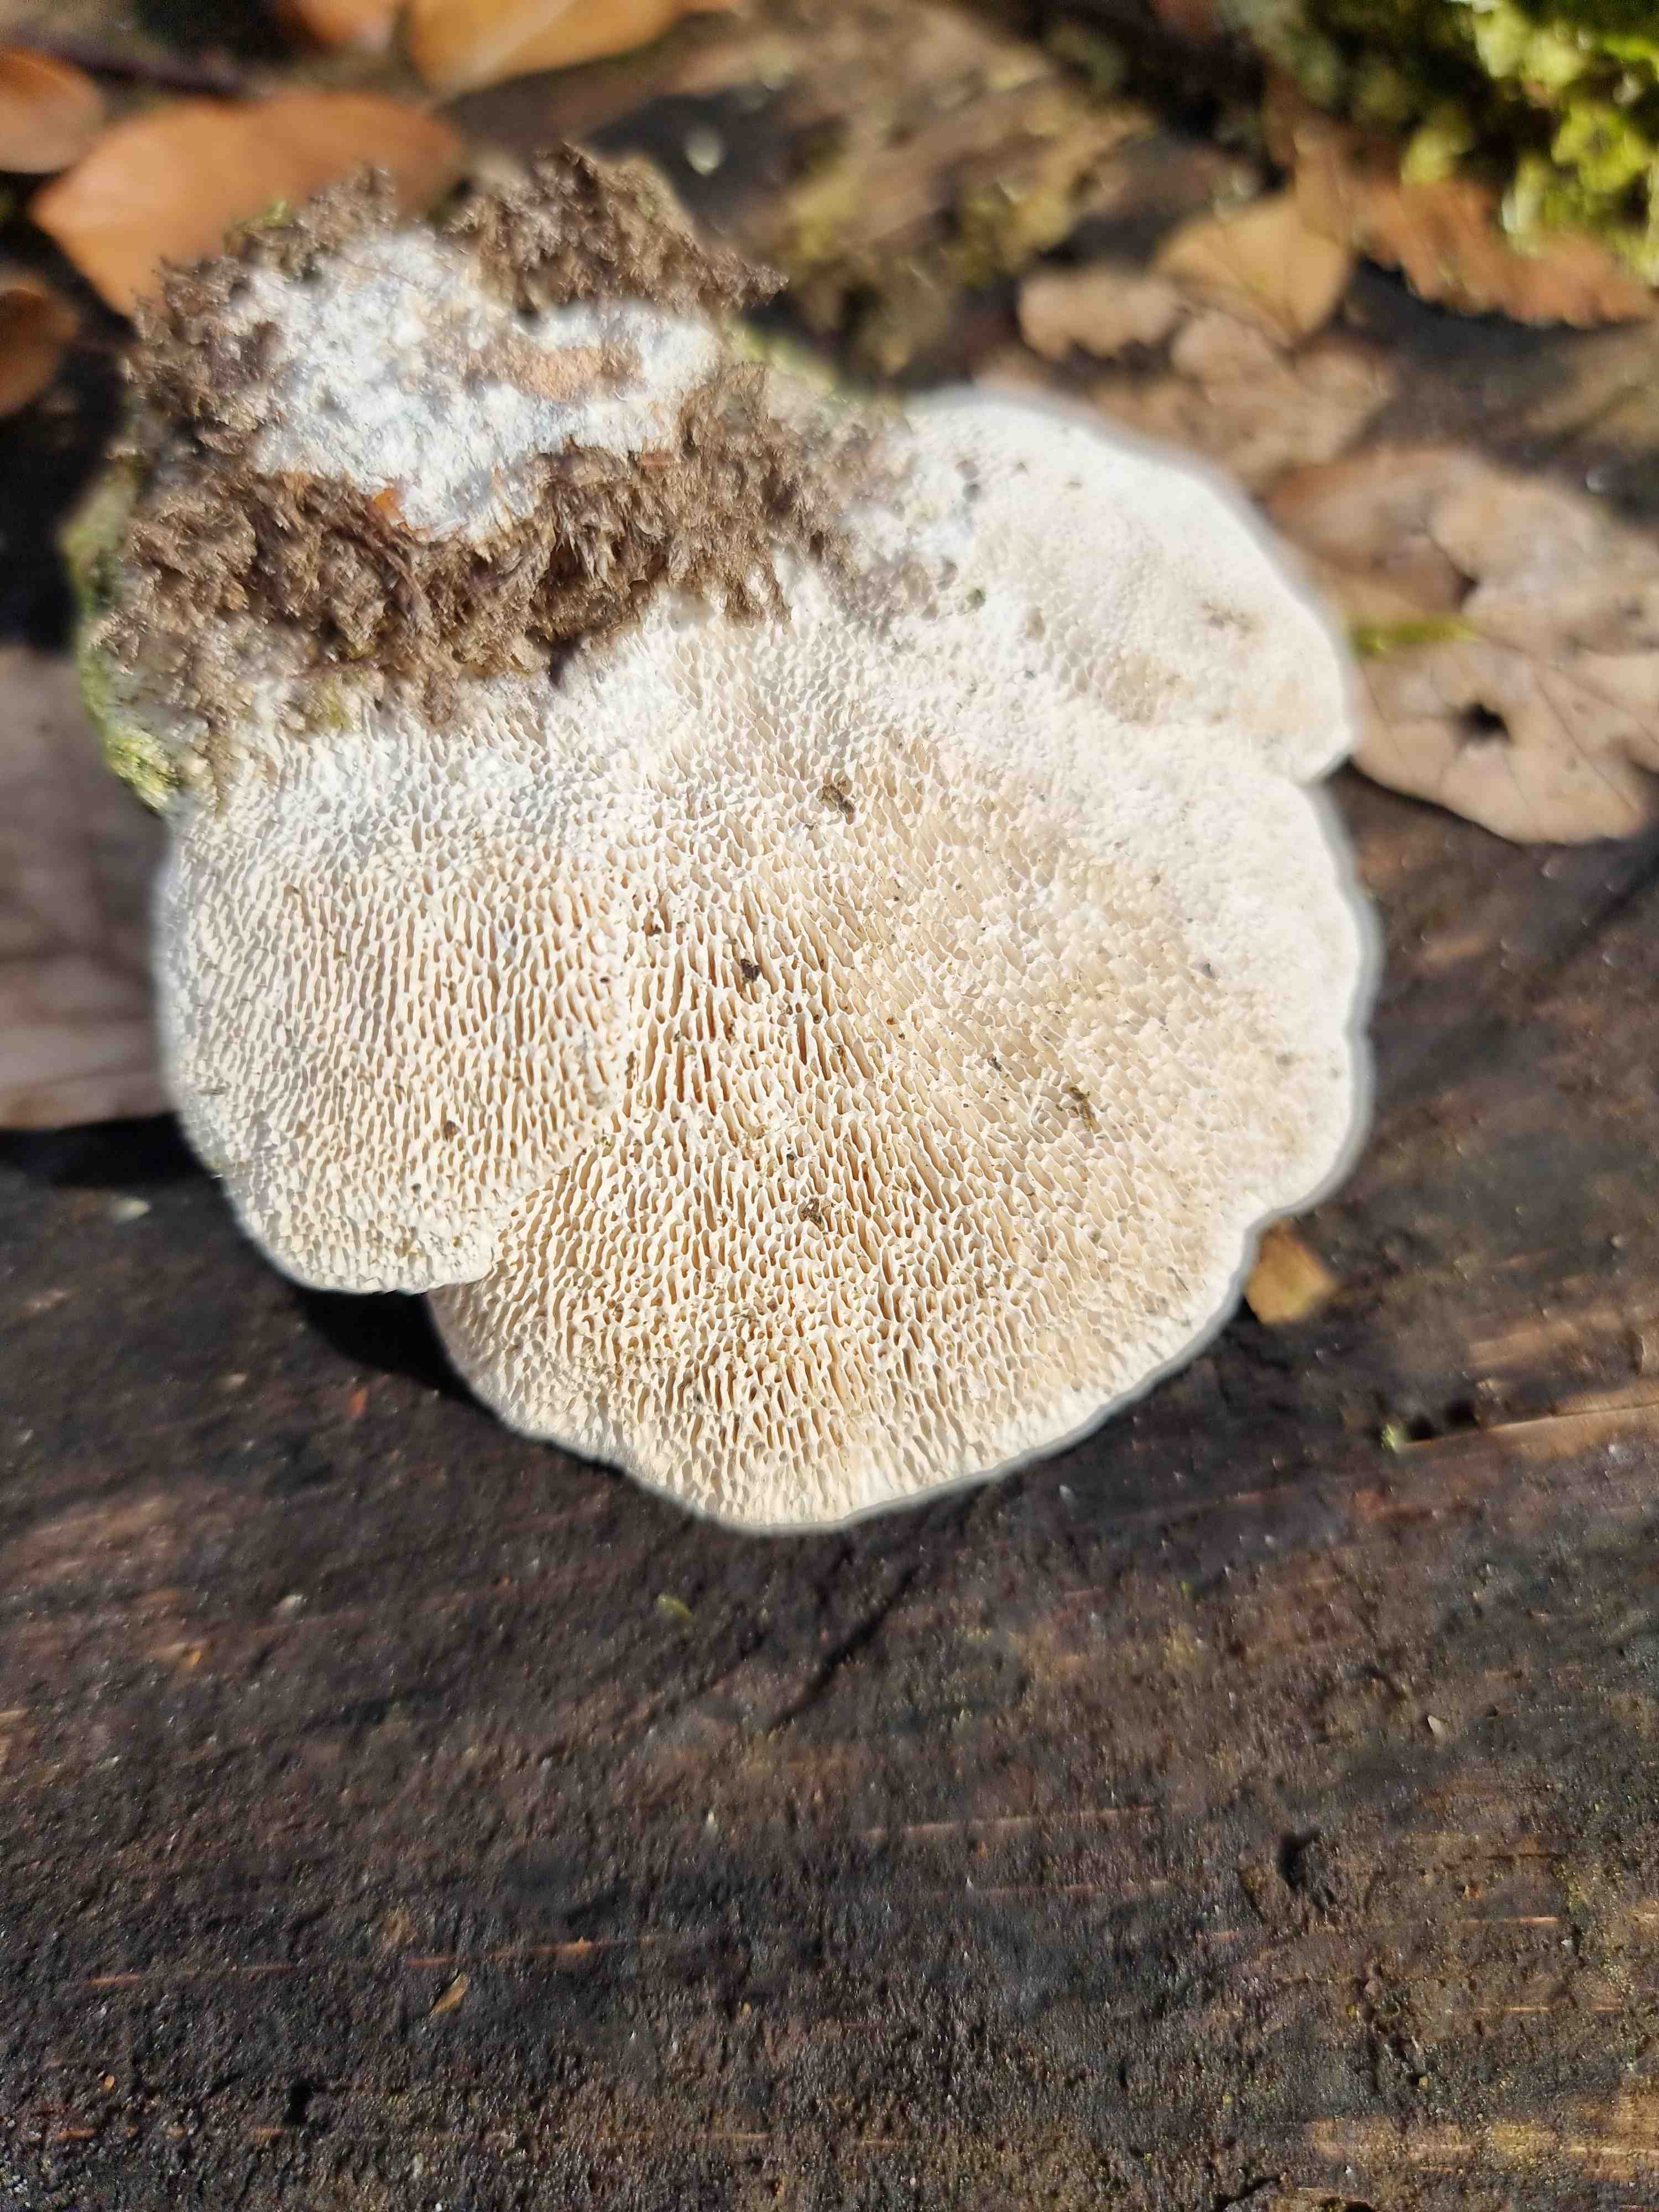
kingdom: Fungi
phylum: Basidiomycota
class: Agaricomycetes
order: Polyporales
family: Polyporaceae
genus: Trametes
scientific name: Trametes gibbosa
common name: puklet læderporesvamp
